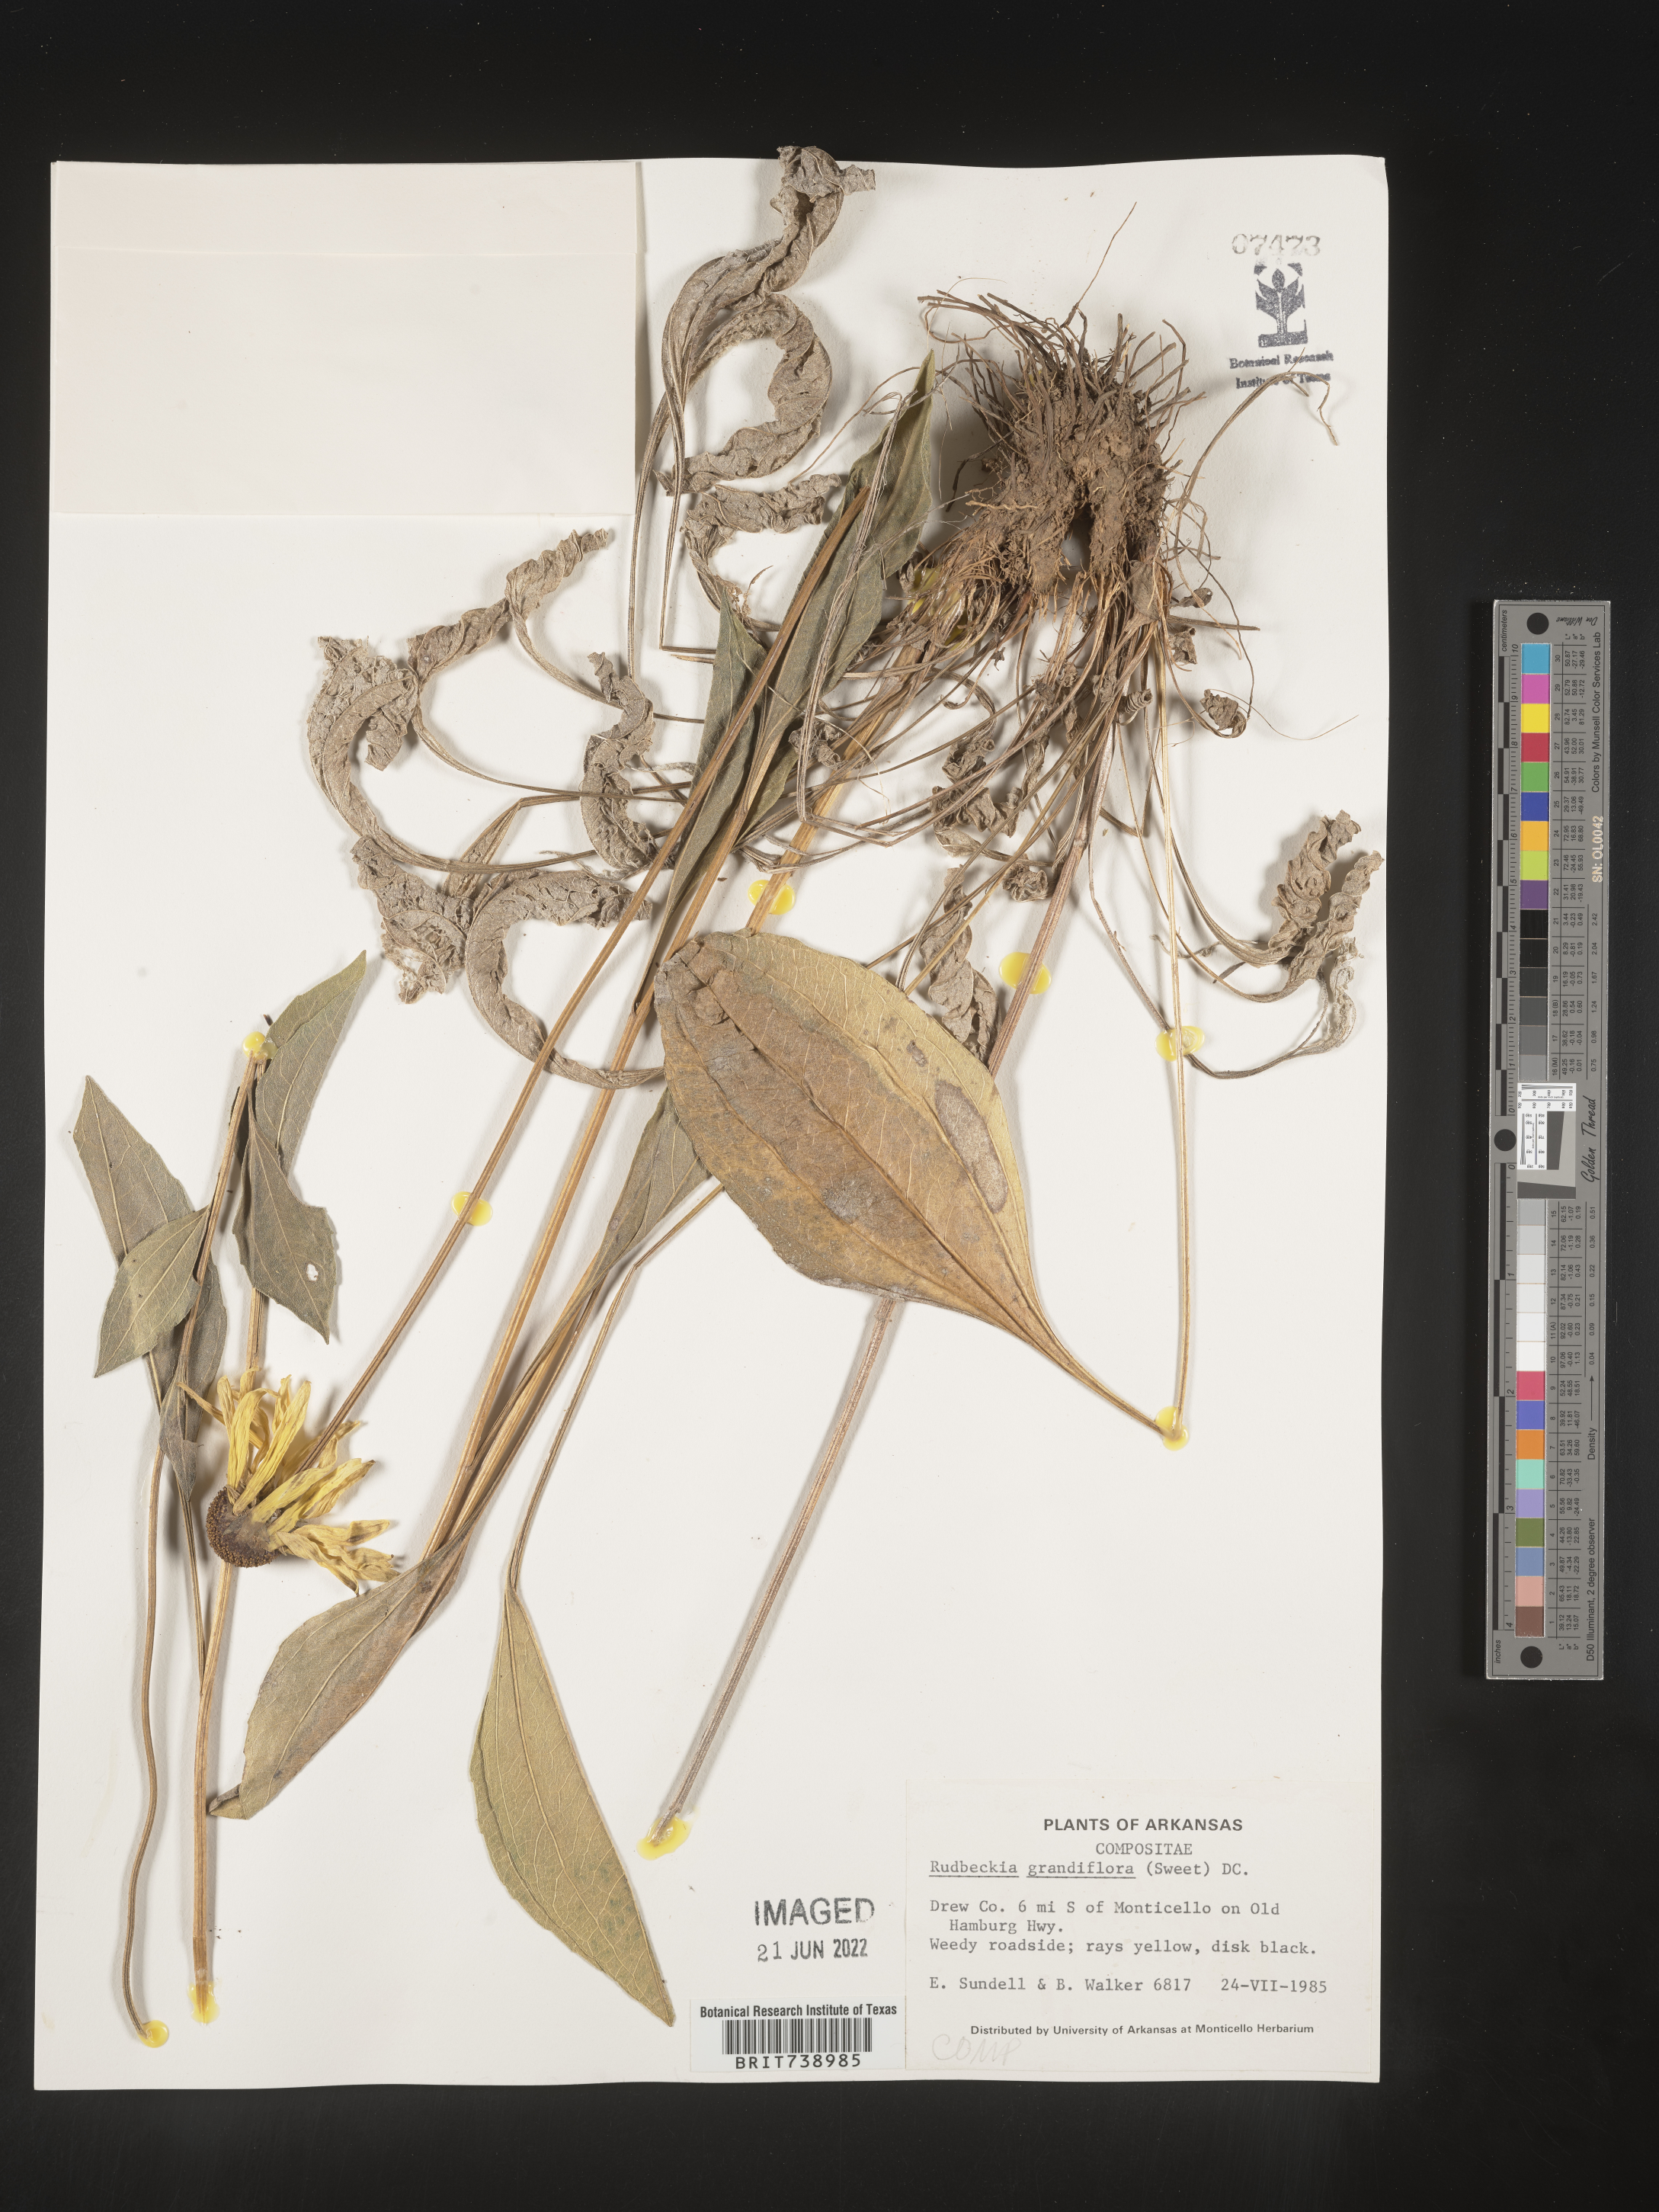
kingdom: Plantae
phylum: Tracheophyta
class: Magnoliopsida
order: Asterales
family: Asteraceae
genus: Rudbeckia
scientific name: Rudbeckia grandiflora
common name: Large-flowered coneflower
